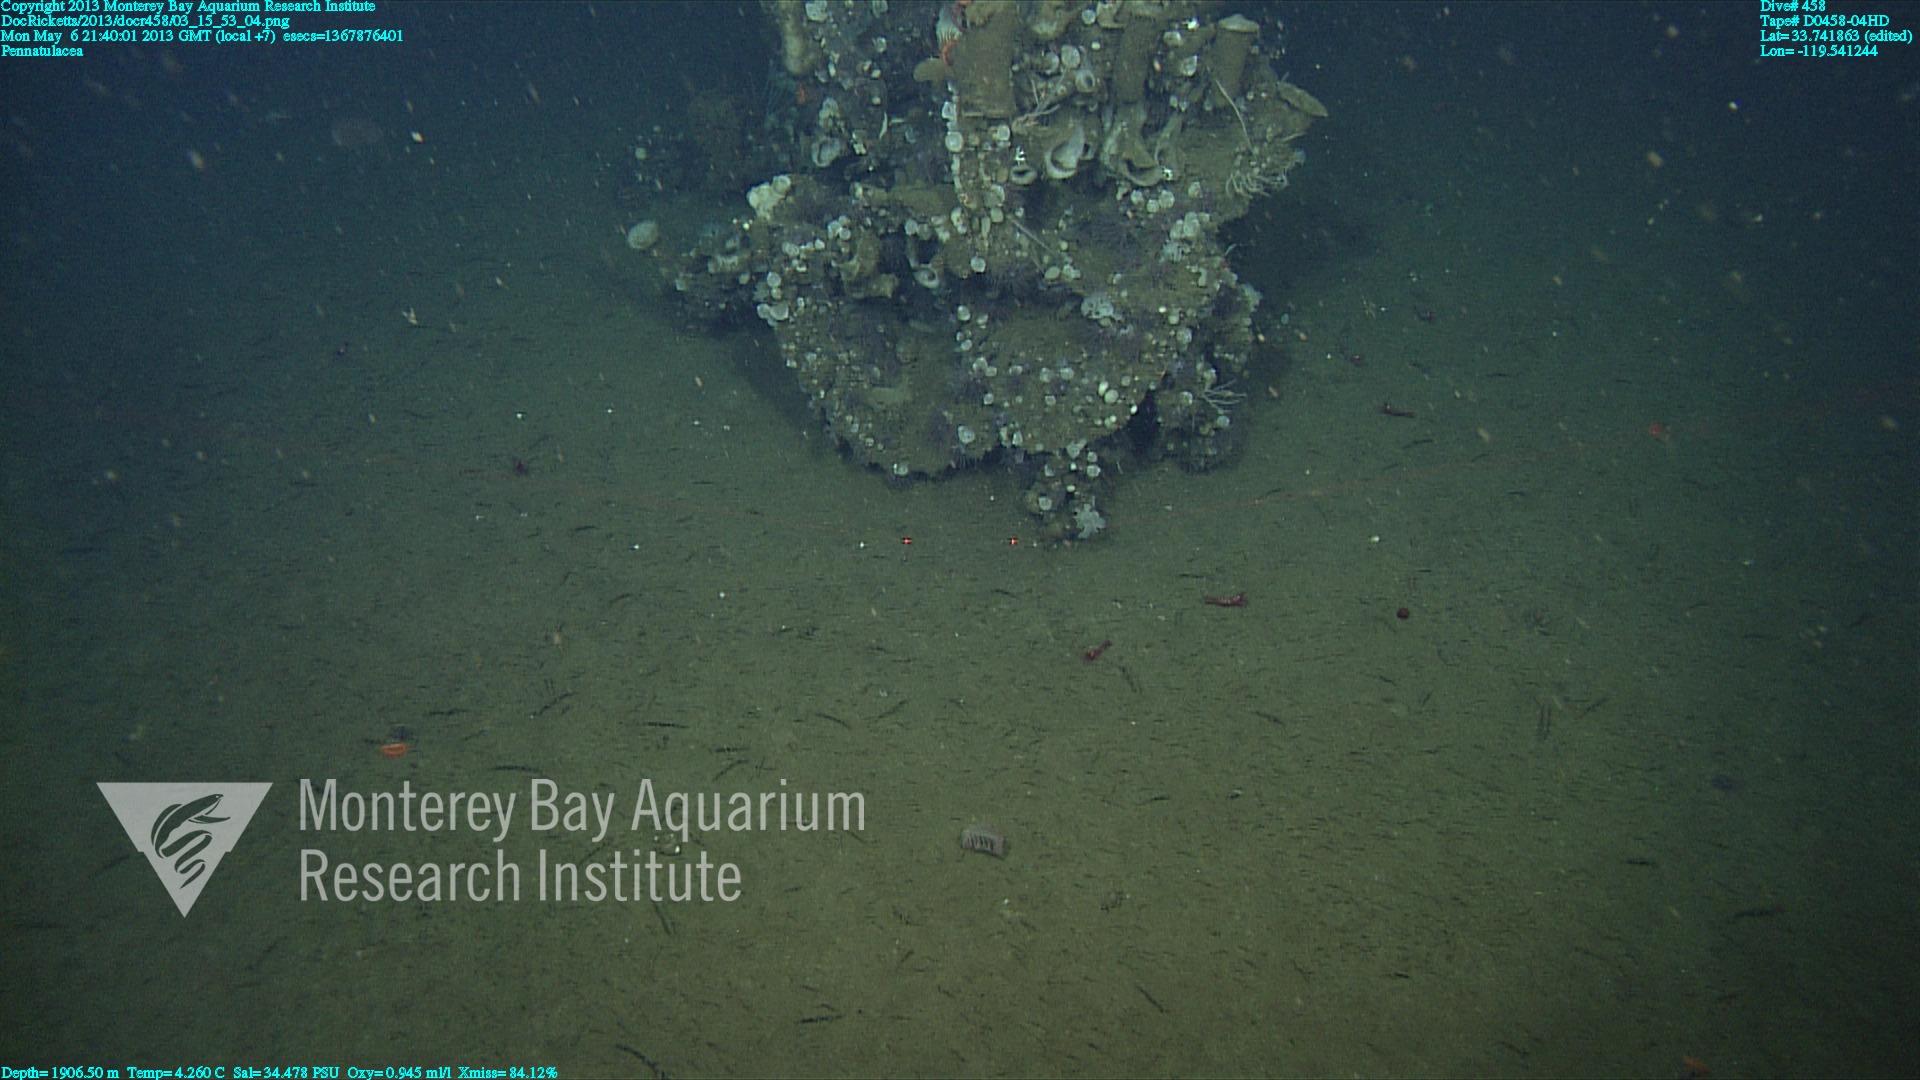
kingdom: Animalia
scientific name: Animalia
